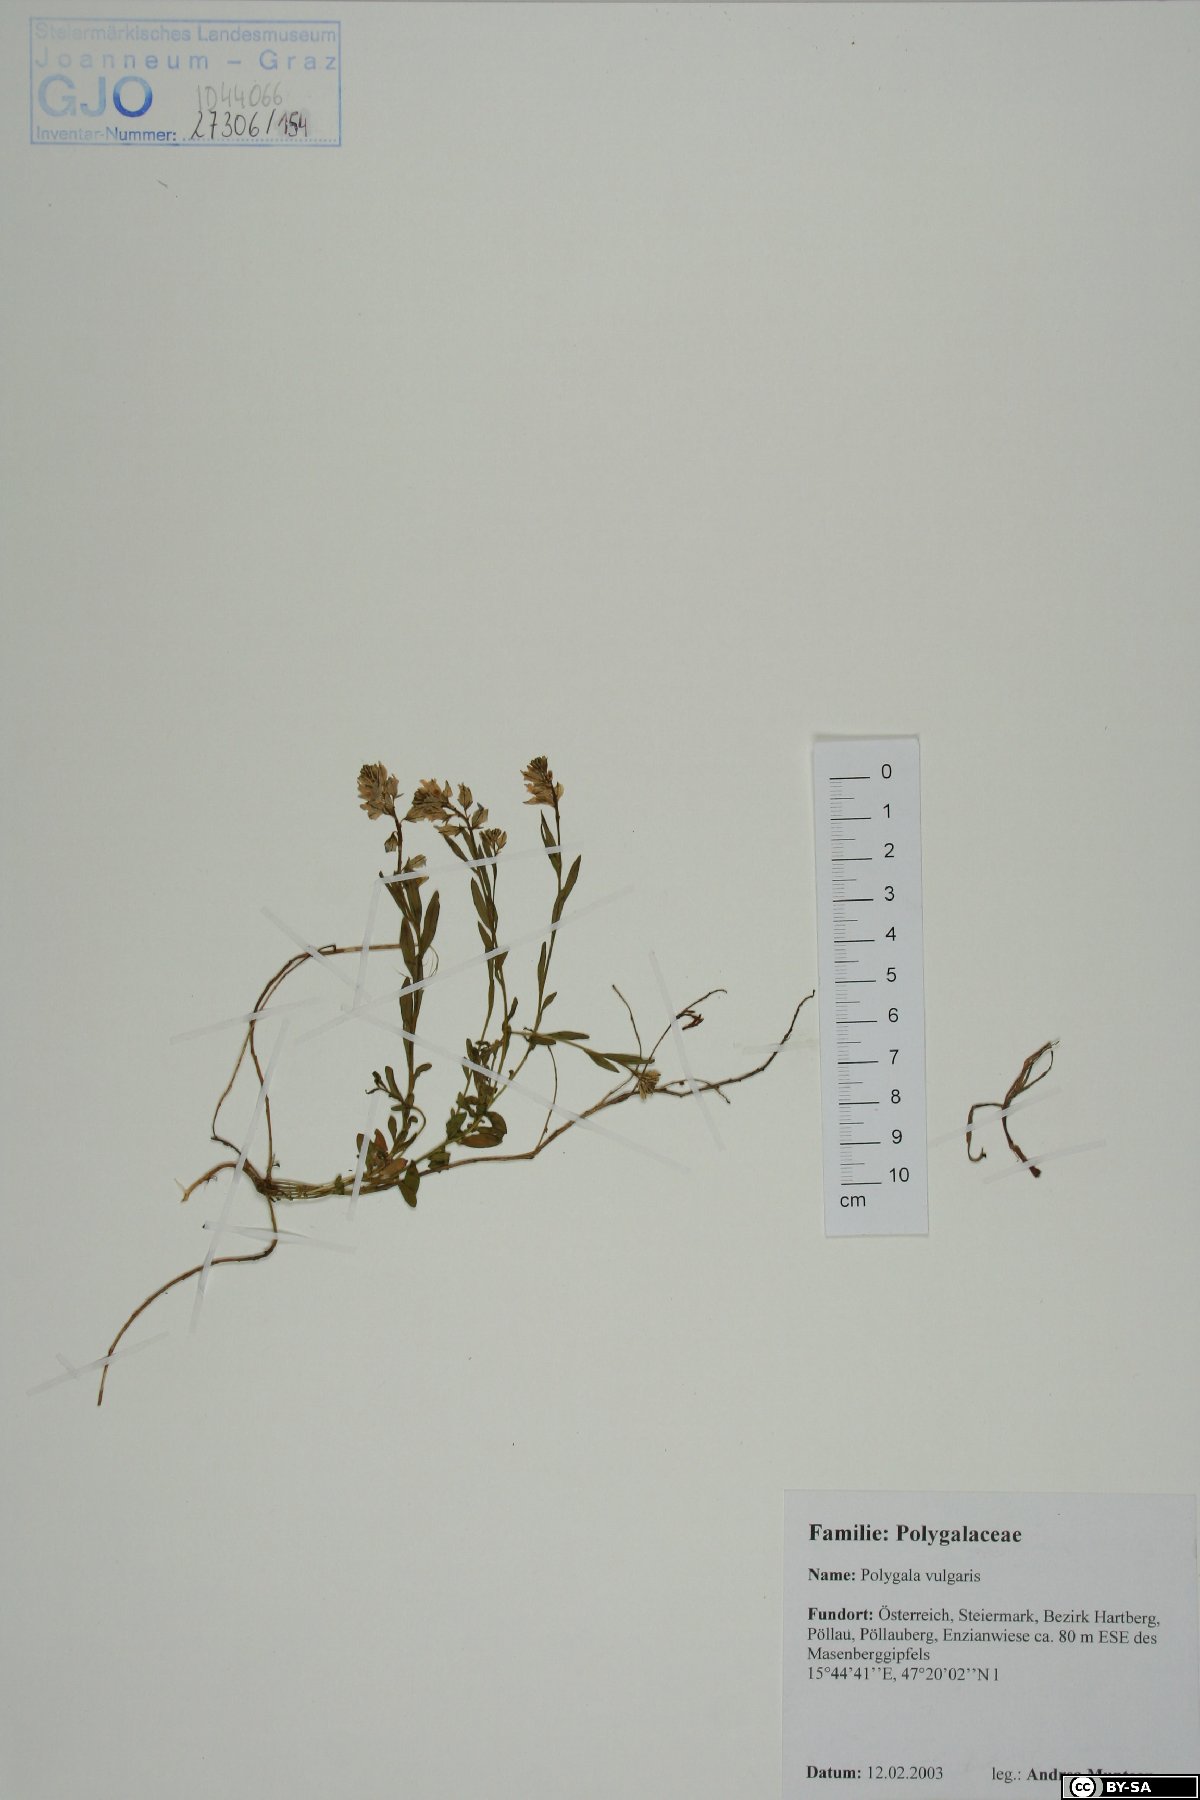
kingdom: Plantae
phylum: Tracheophyta
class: Magnoliopsida
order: Fabales
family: Polygalaceae
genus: Polygala
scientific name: Polygala vulgaris
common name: Common milkwort
